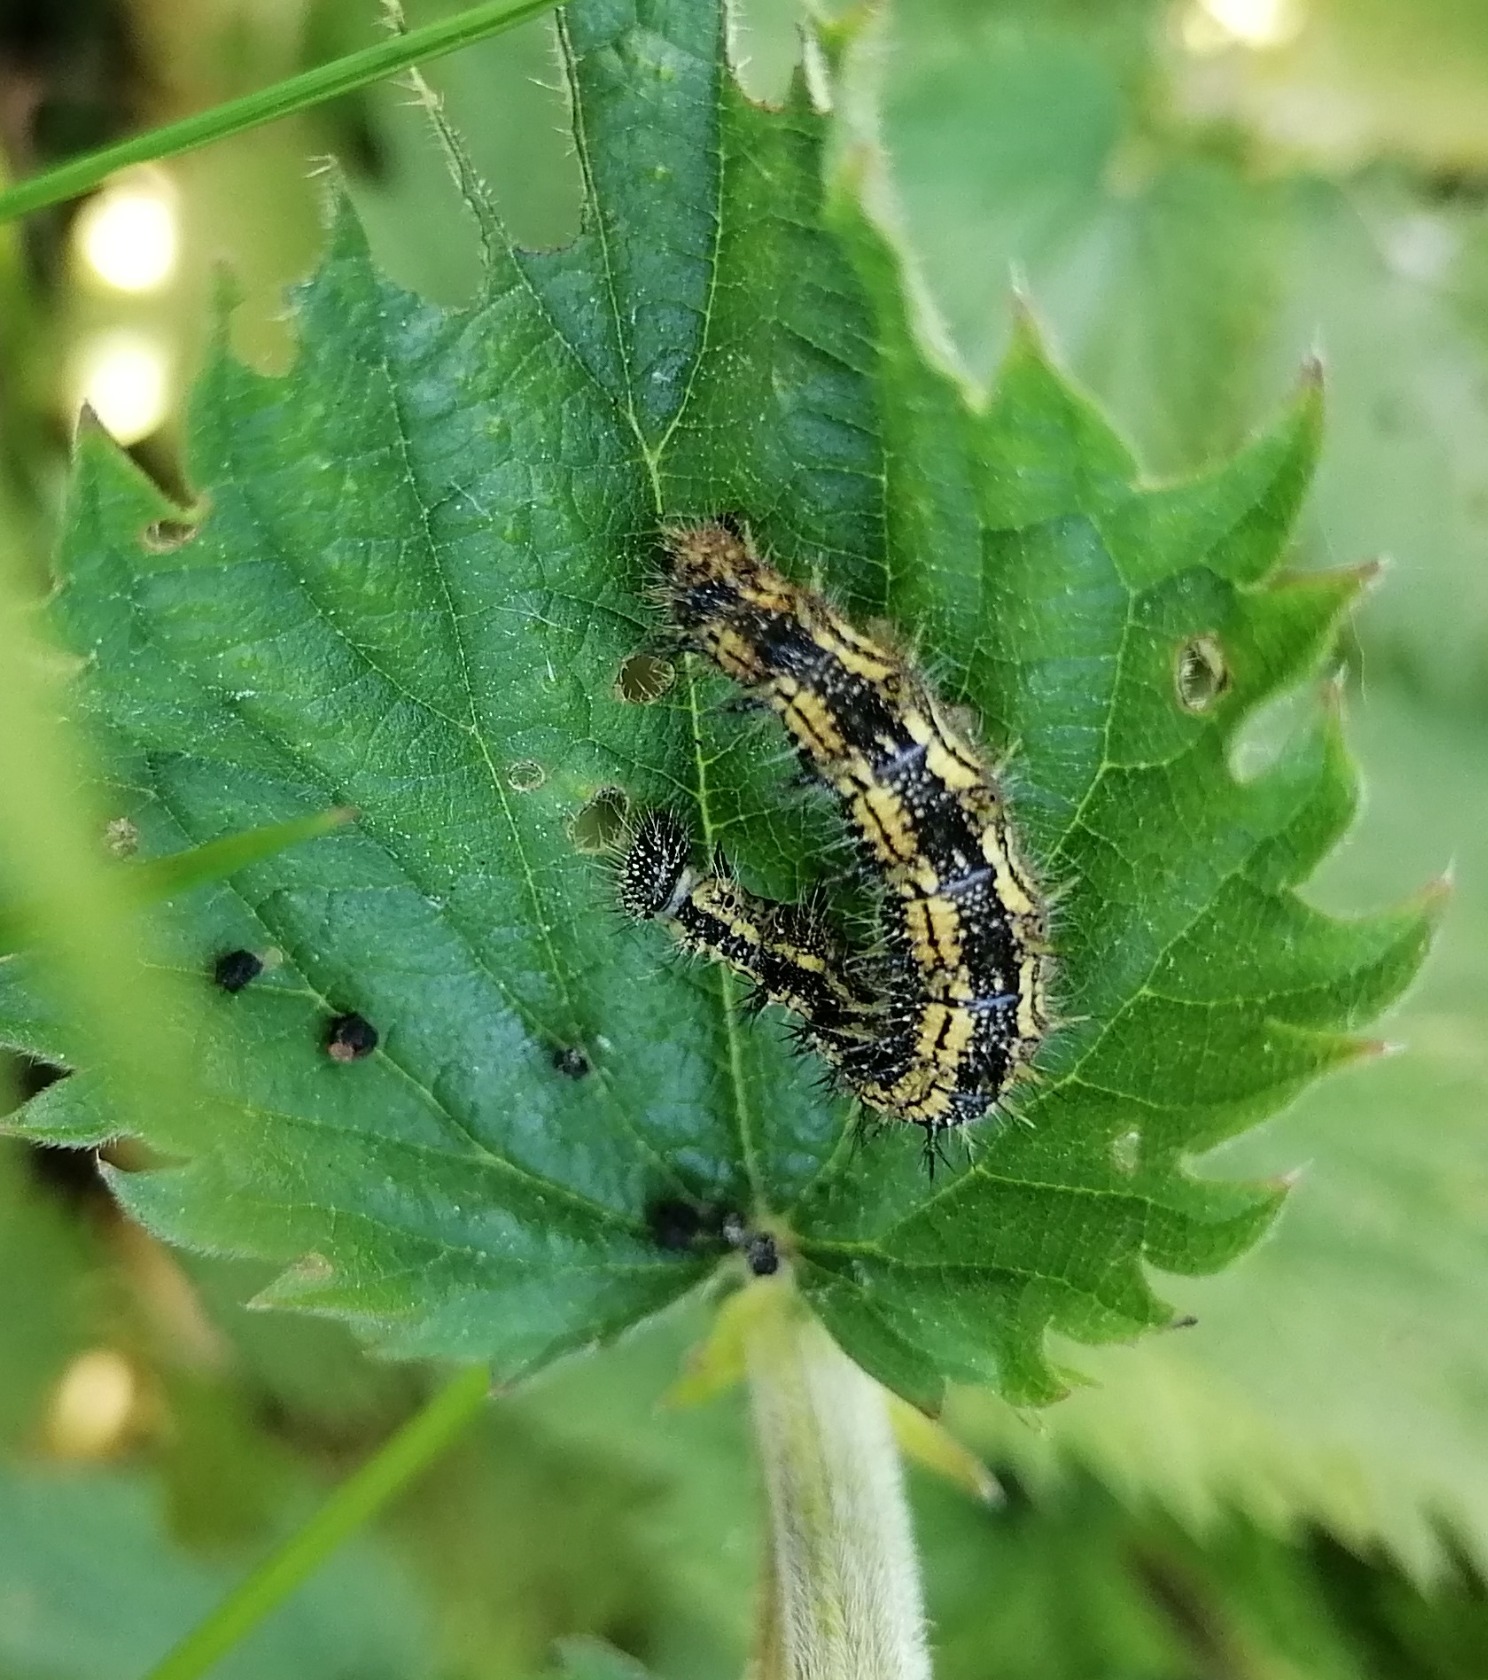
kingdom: Animalia
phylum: Arthropoda
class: Insecta
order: Lepidoptera
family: Nymphalidae
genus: Aglais
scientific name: Aglais urticae
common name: Nældens takvinge
